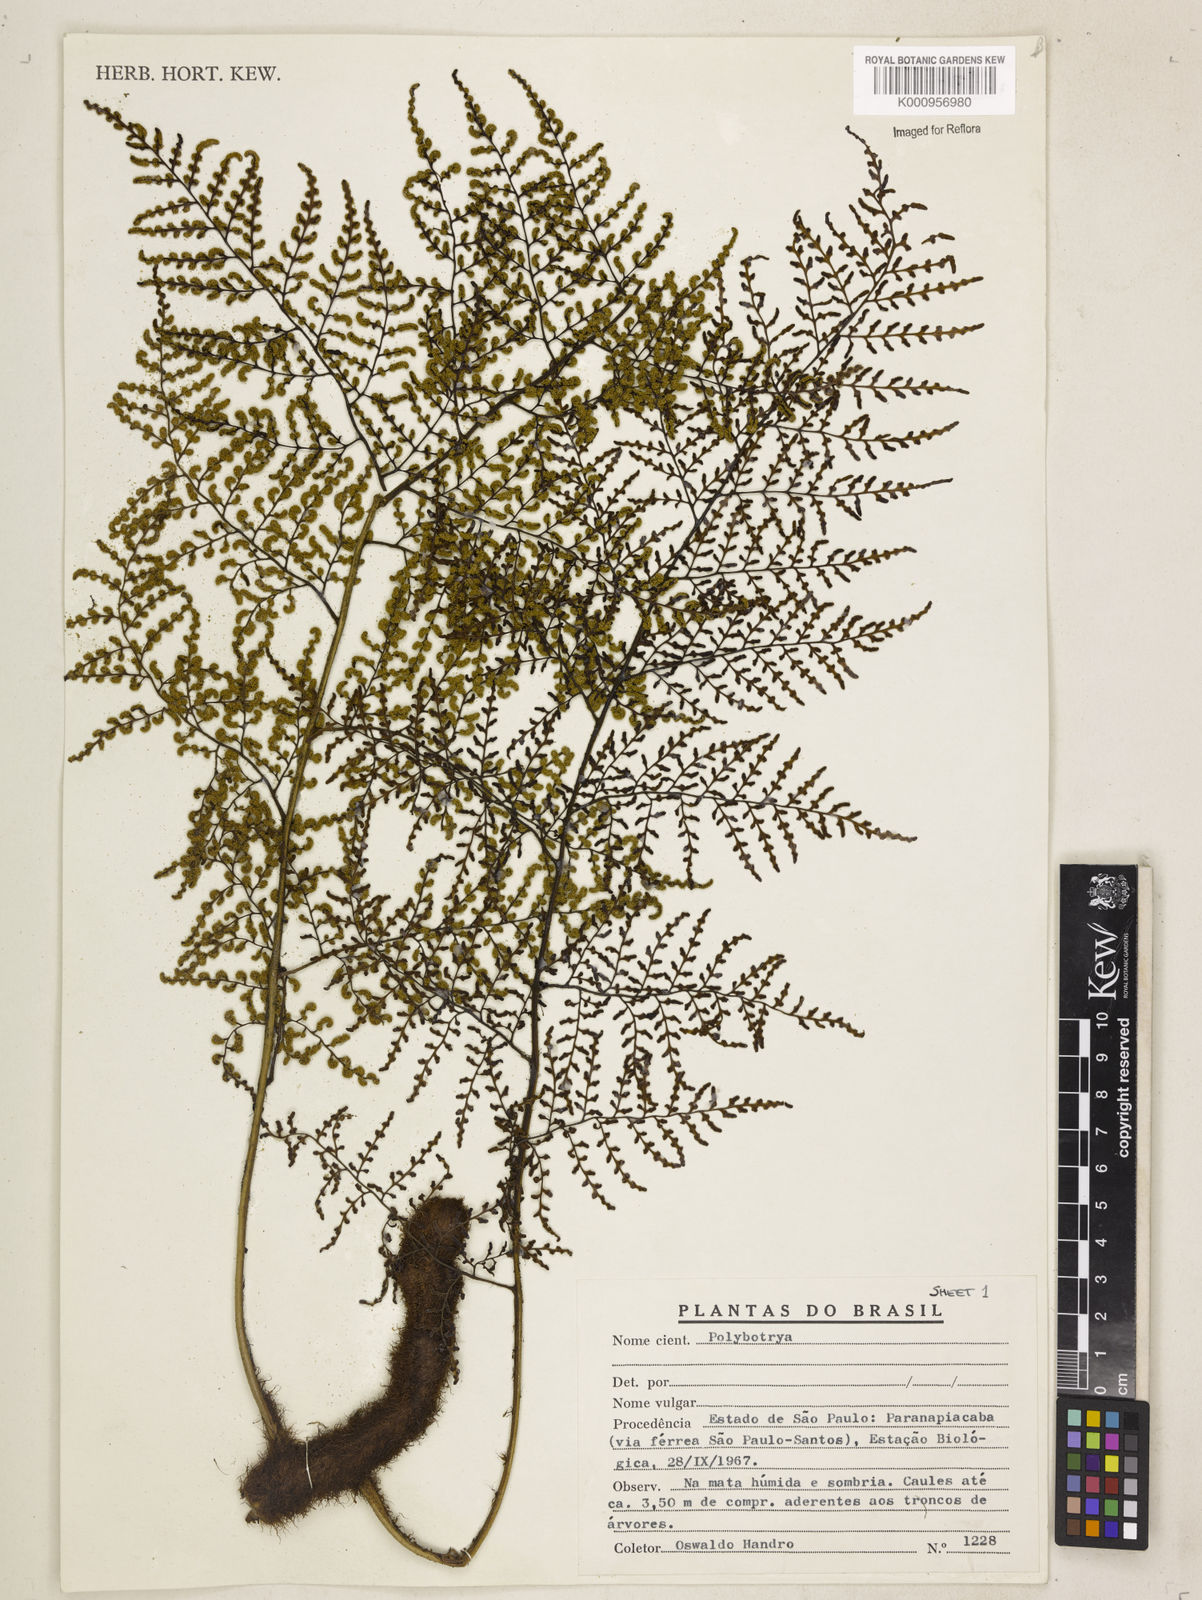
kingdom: Plantae
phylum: Tracheophyta
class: Polypodiopsida
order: Polypodiales
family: Dryopteridaceae
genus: Polybotrya
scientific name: Polybotrya osmundacea
